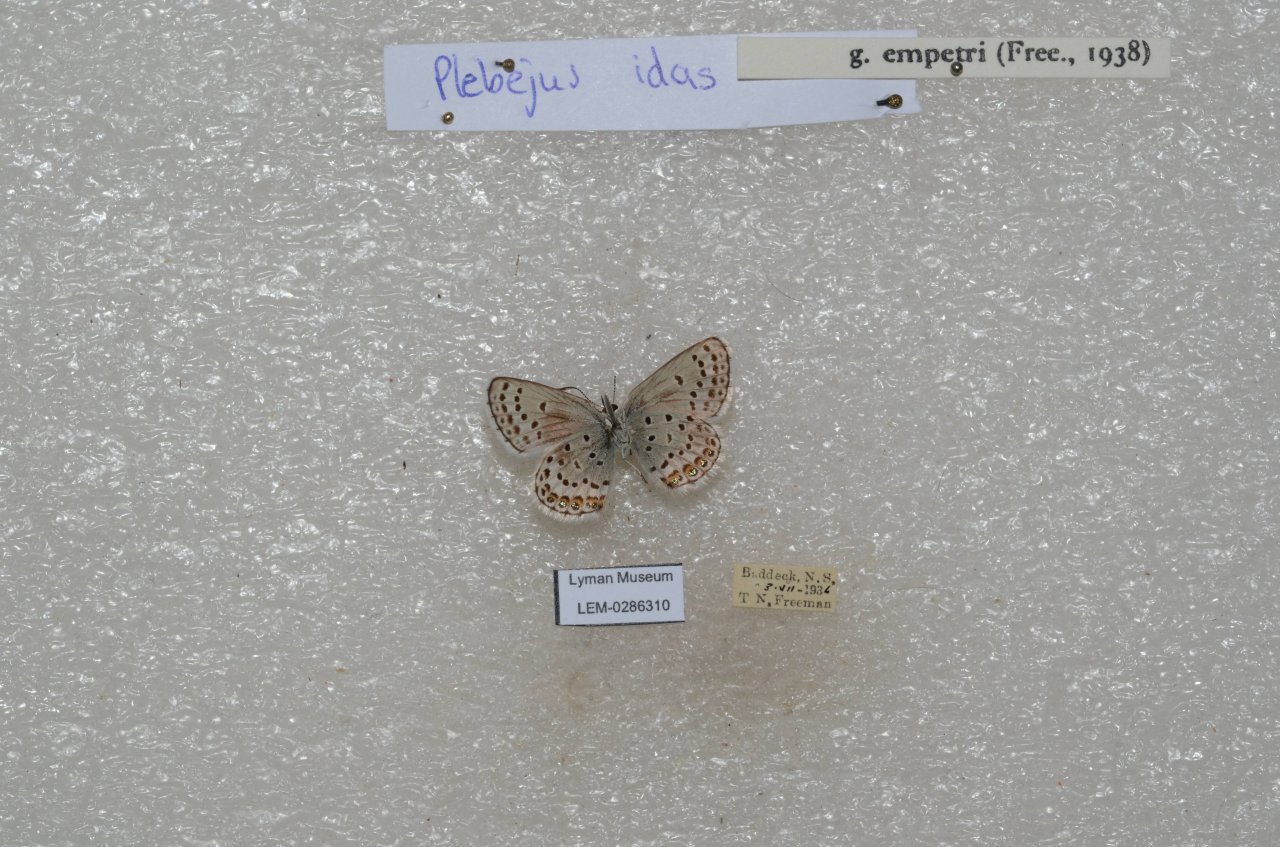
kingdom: Animalia
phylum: Arthropoda
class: Insecta
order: Lepidoptera
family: Lycaenidae
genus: Lycaeides
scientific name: Lycaeides idas
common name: Northern Blue
